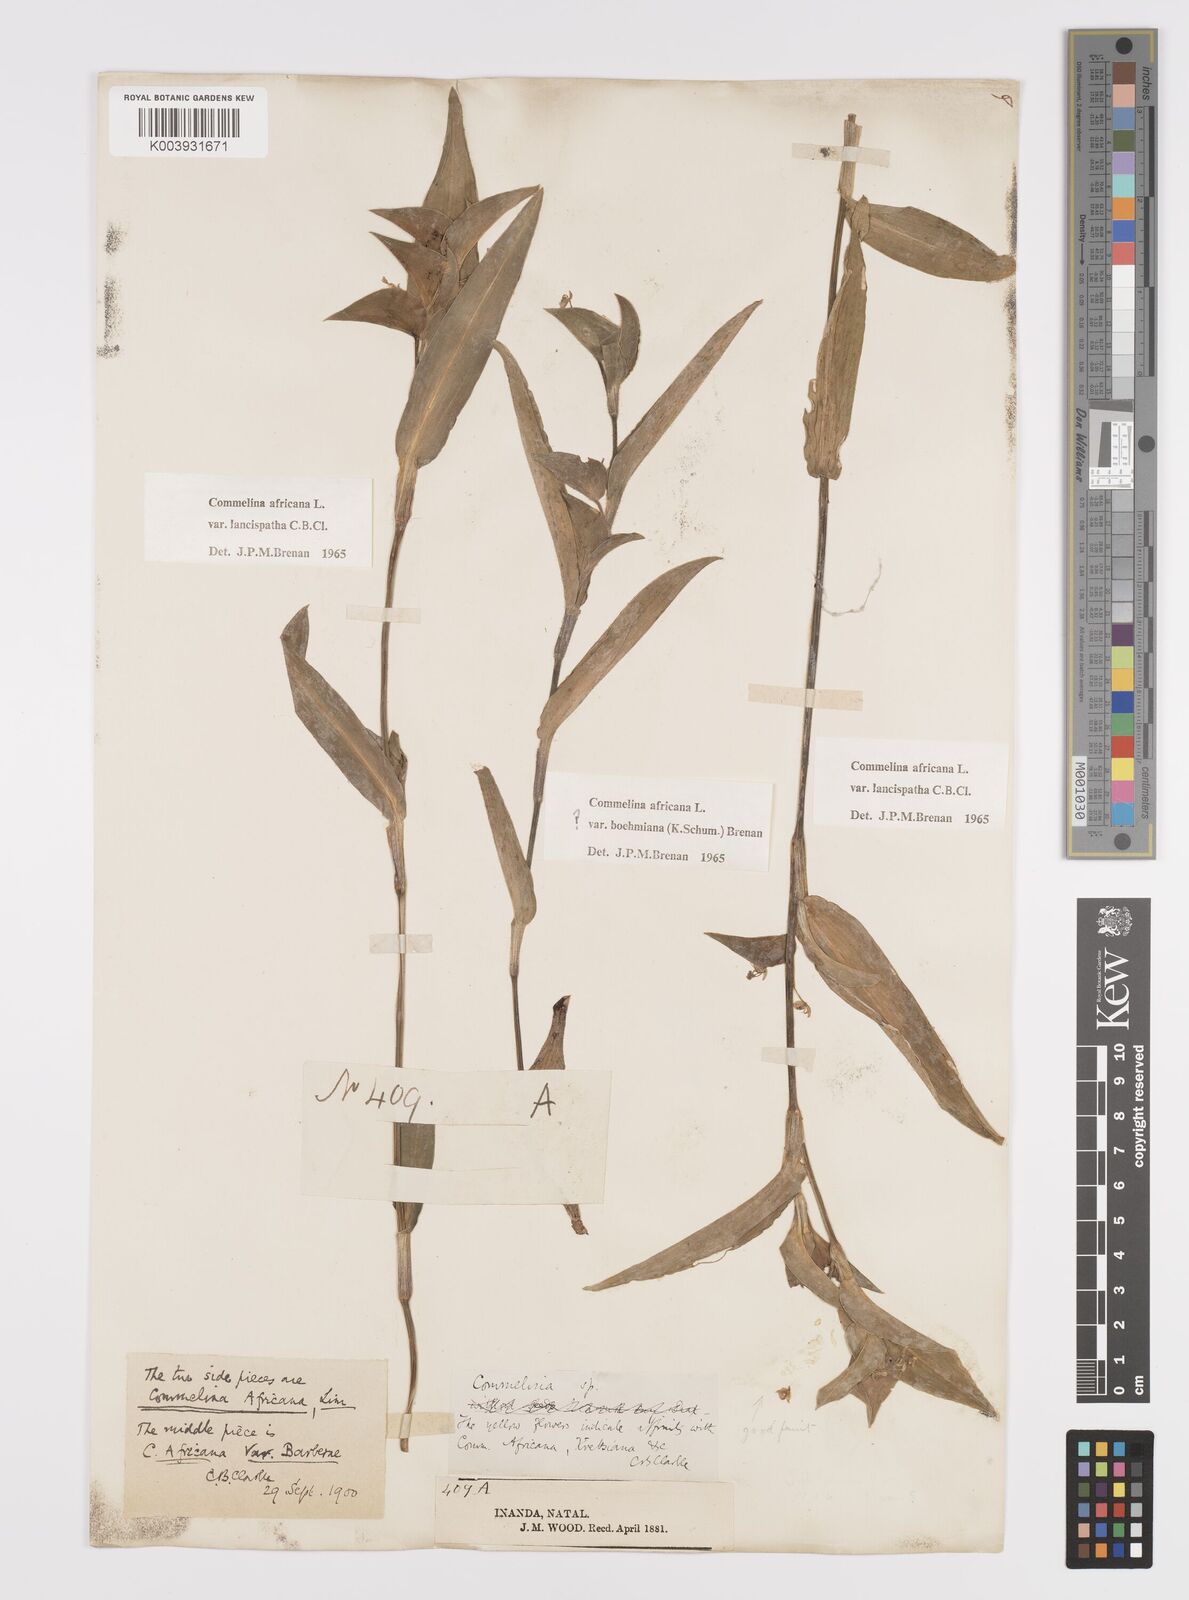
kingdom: Plantae
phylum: Tracheophyta
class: Liliopsida
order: Commelinales
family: Commelinaceae
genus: Commelina
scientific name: Commelina africana
